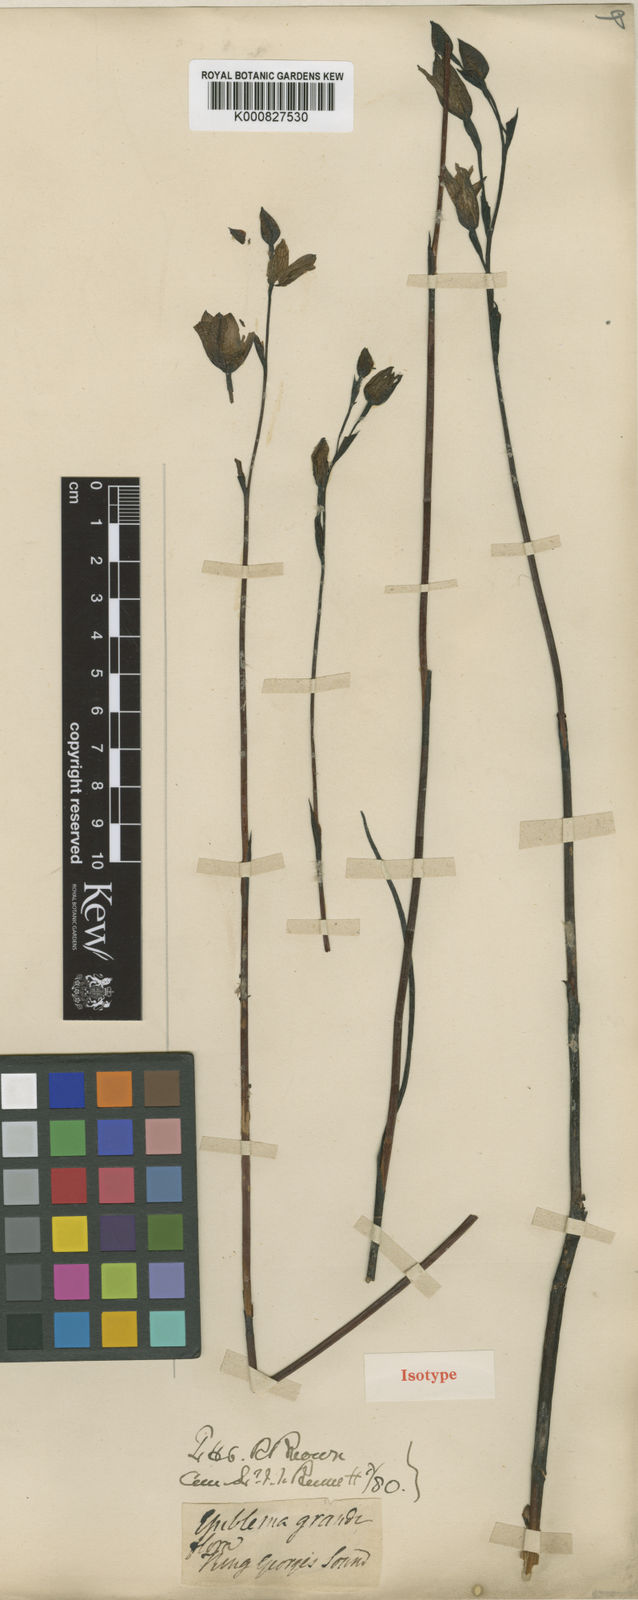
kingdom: Plantae
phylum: Tracheophyta
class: Liliopsida
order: Asparagales
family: Orchidaceae
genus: Epiblema
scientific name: Epiblema grandiflorum
